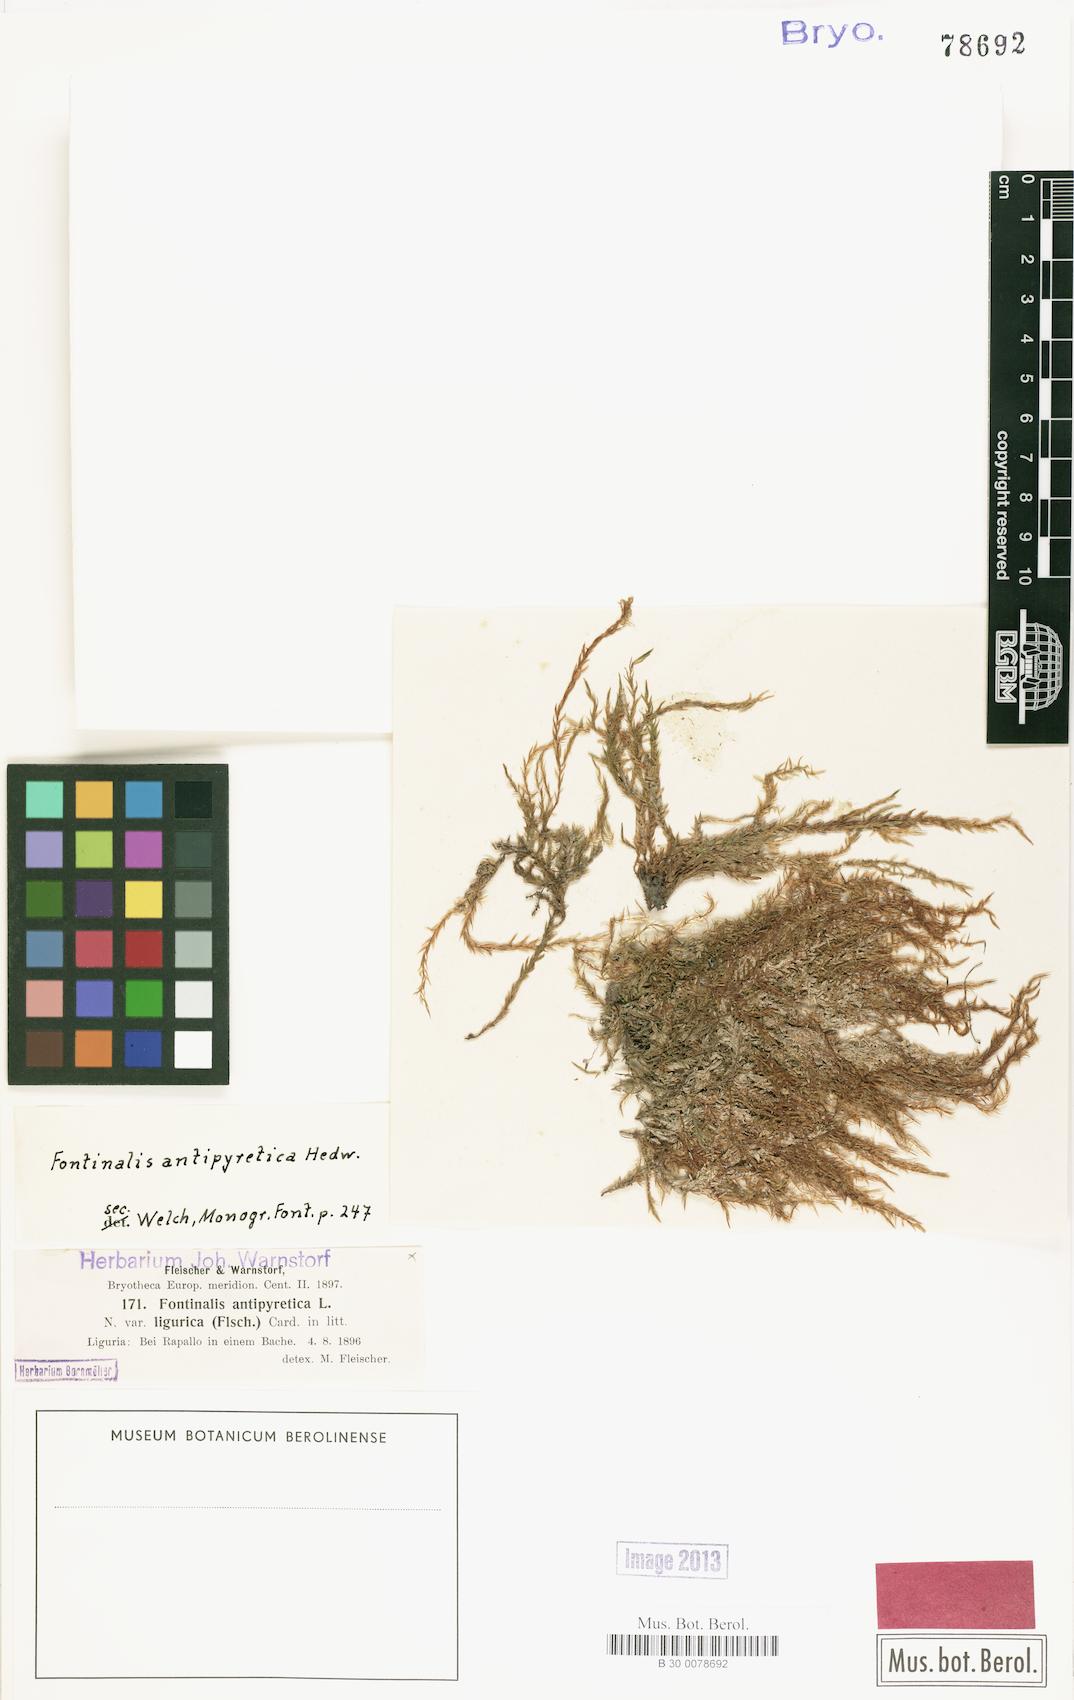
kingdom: Plantae
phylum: Bryophyta
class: Bryopsida
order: Hypnales
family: Fontinalaceae
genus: Fontinalis
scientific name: Fontinalis antipyretica
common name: Greater water-moss
